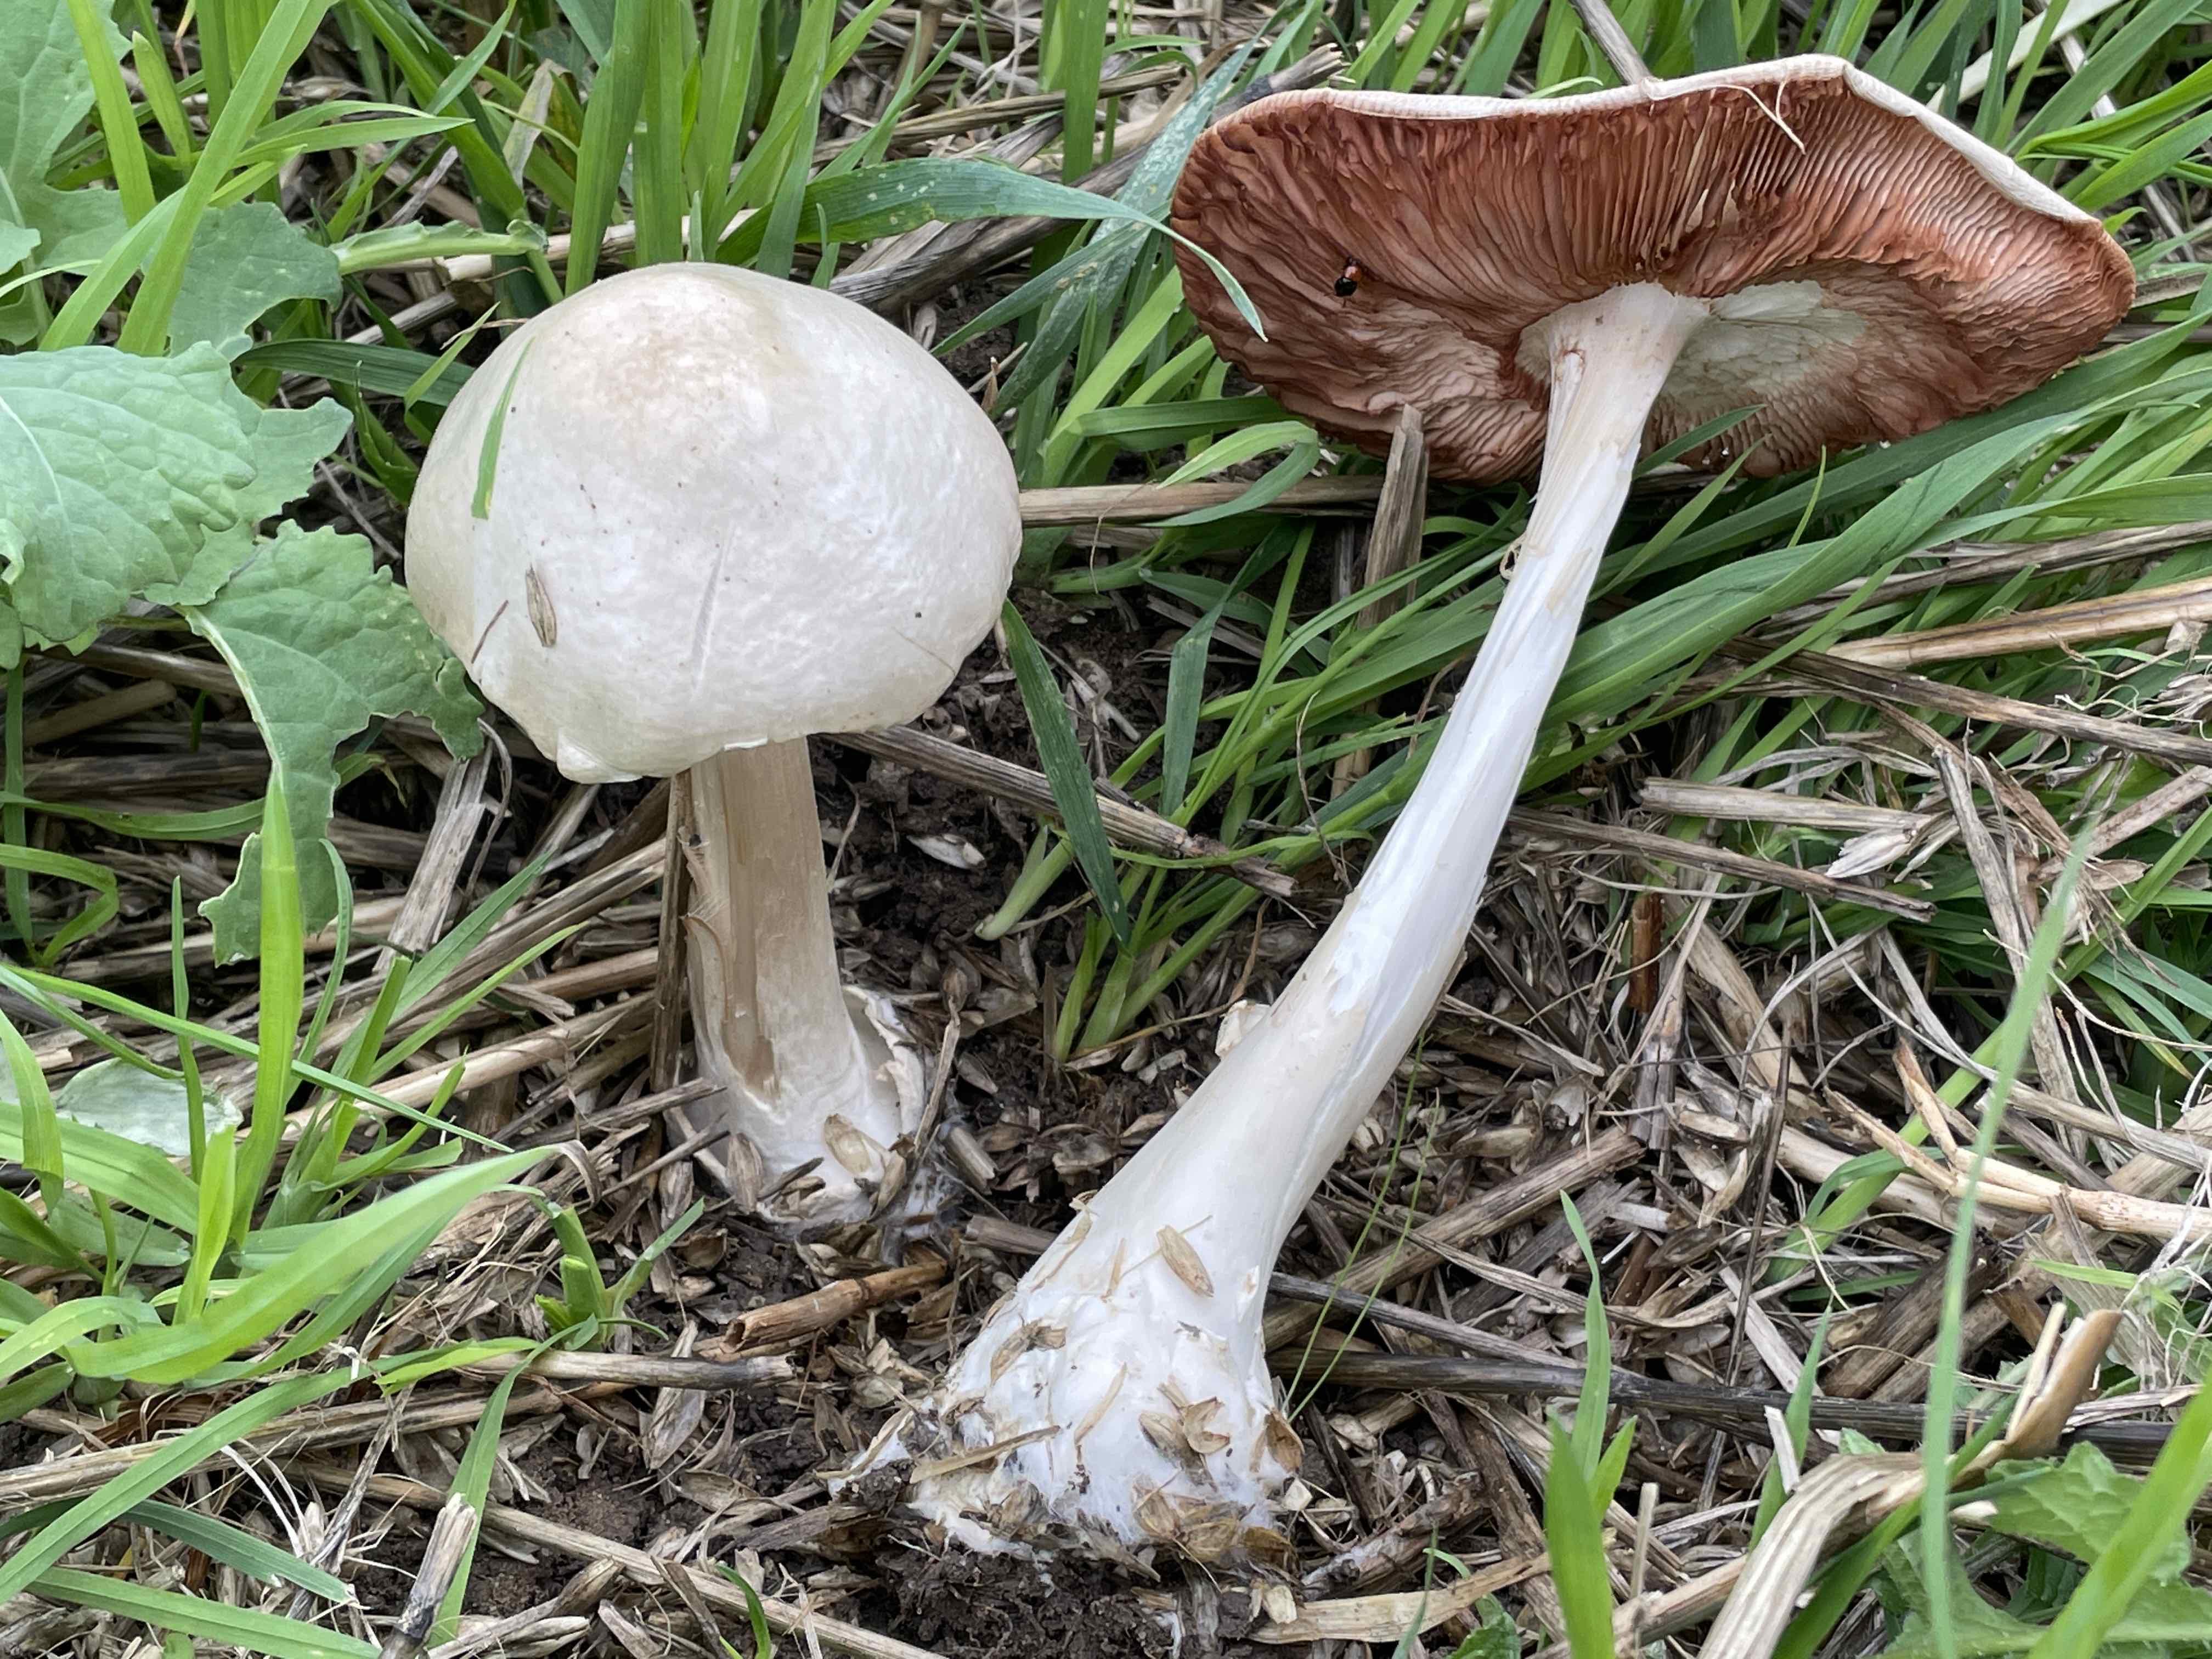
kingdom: Fungi
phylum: Basidiomycota
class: Agaricomycetes
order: Agaricales
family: Pluteaceae
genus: Volvopluteus
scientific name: Volvopluteus gloiocephalus
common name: høj posesvamp
